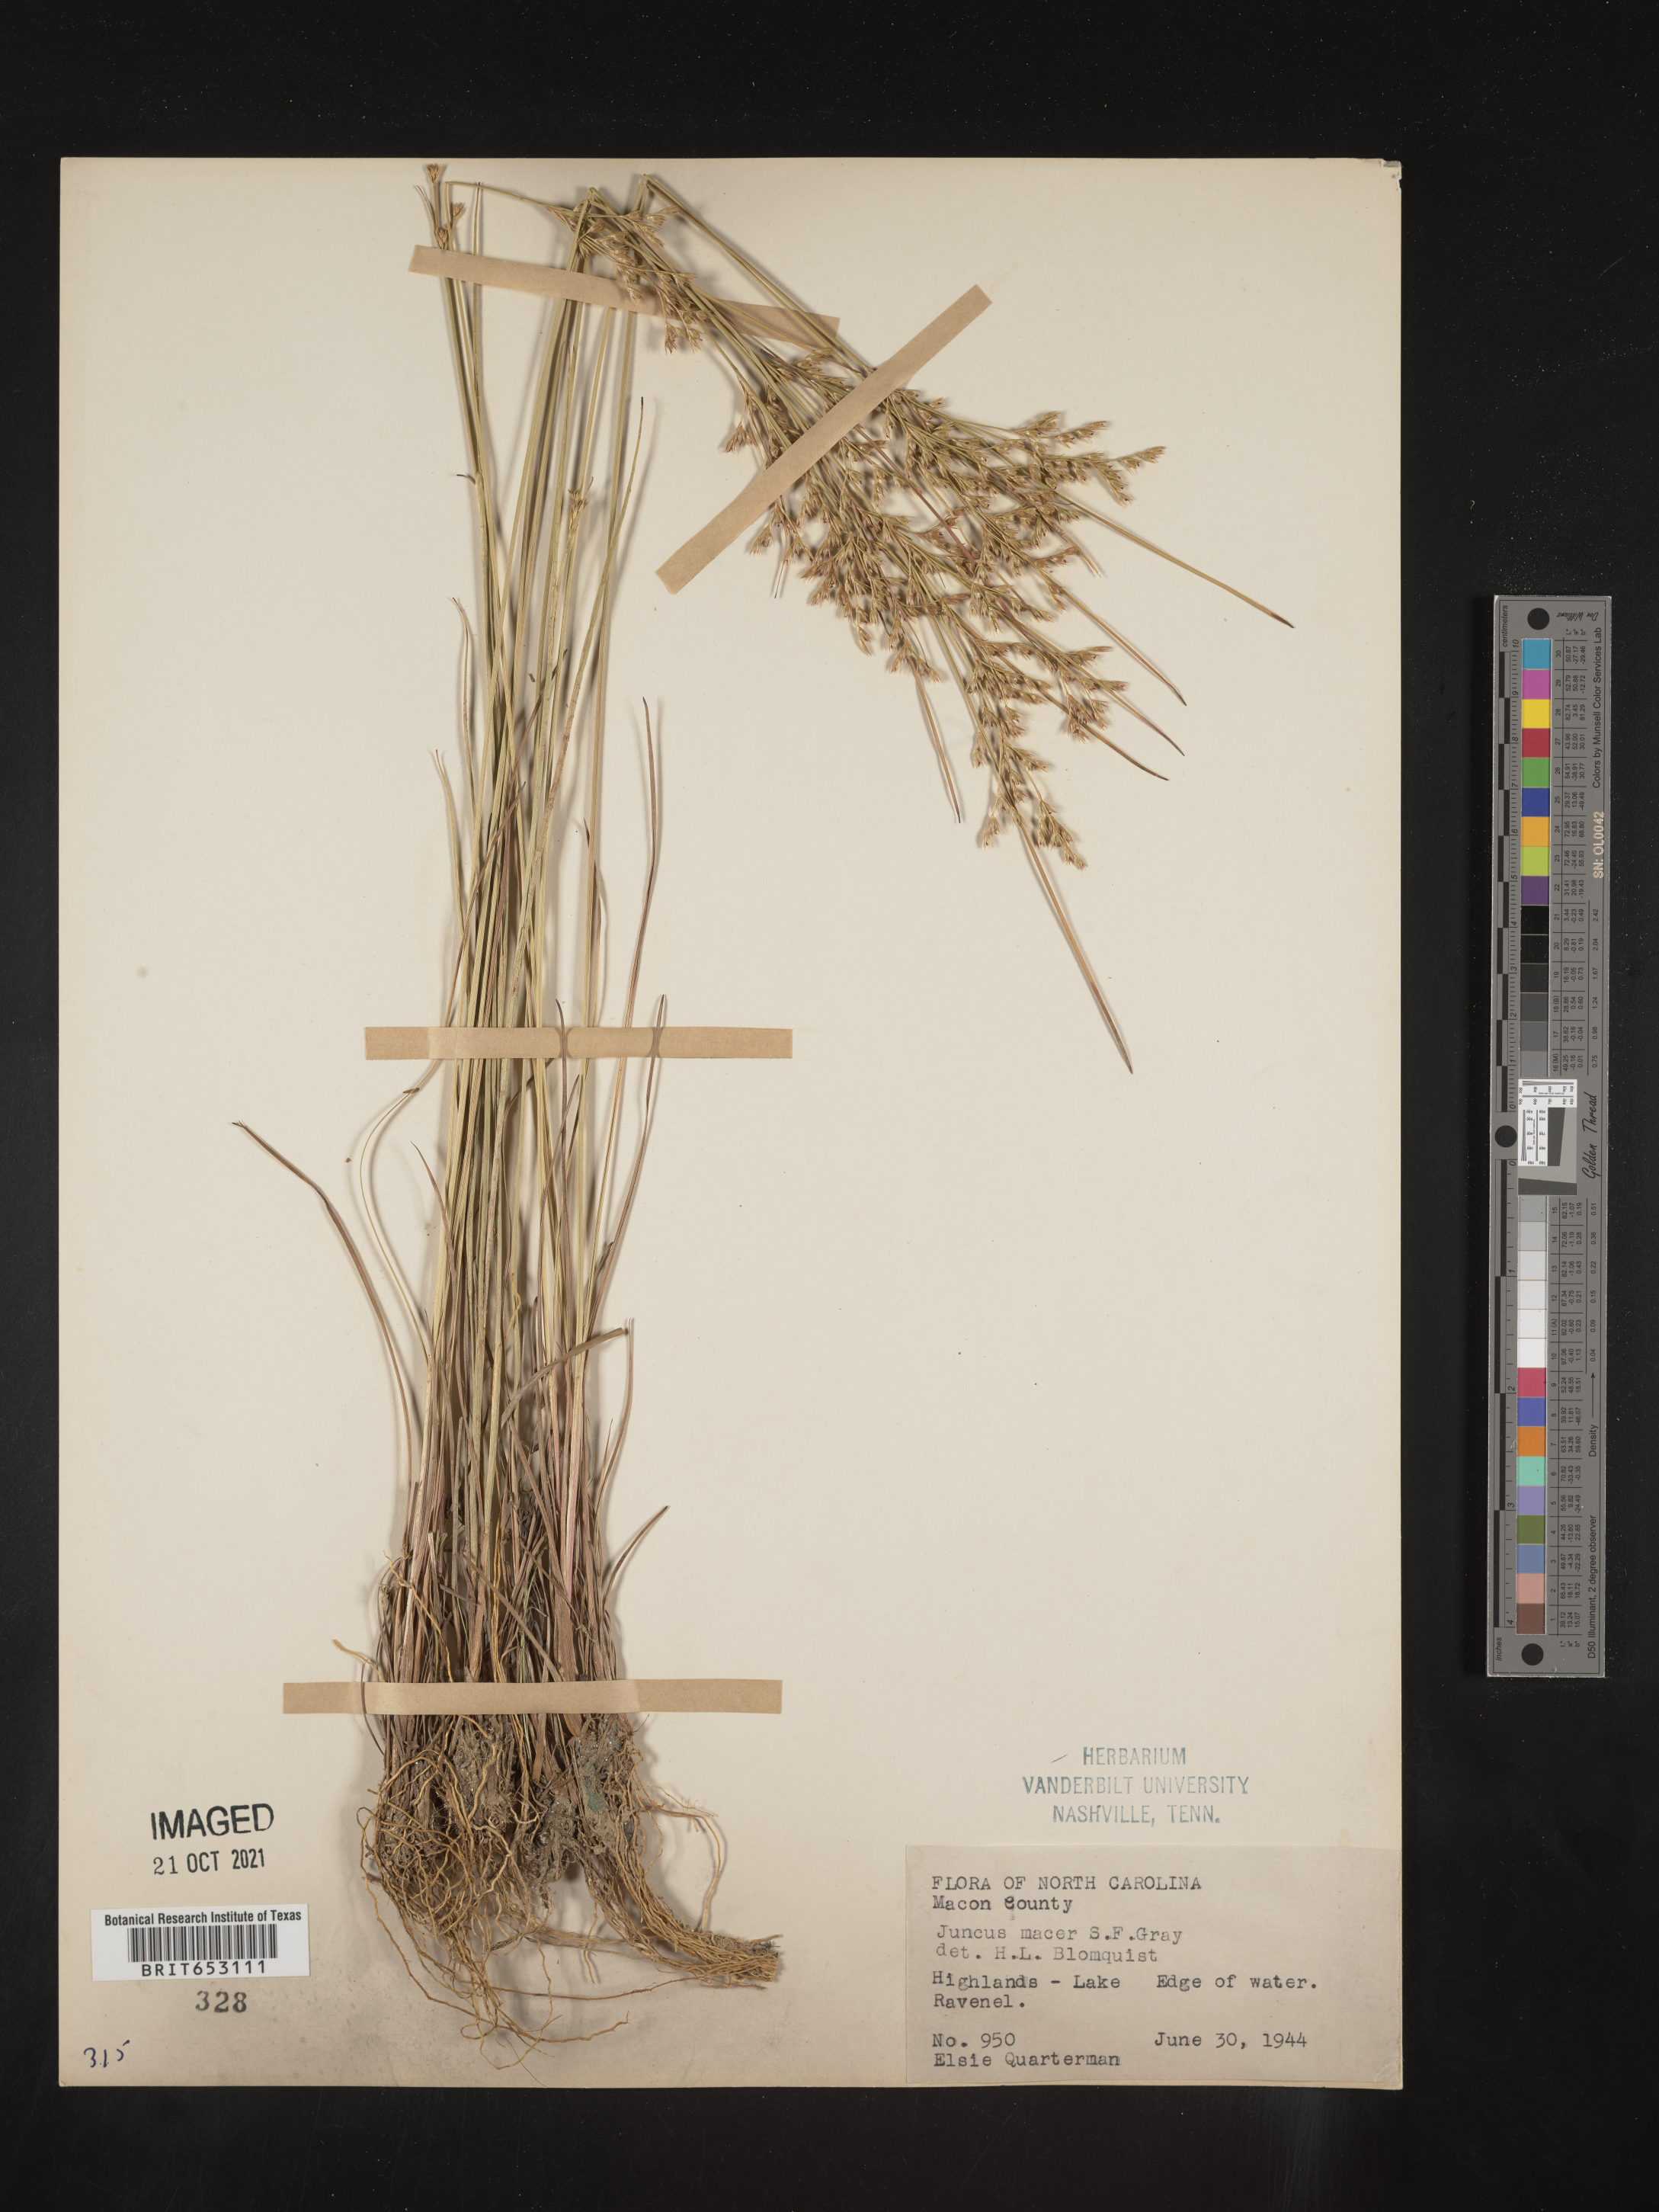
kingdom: Plantae
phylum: Tracheophyta
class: Liliopsida
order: Poales
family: Juncaceae
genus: Juncus
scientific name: Juncus tenuis
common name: Slender rush
